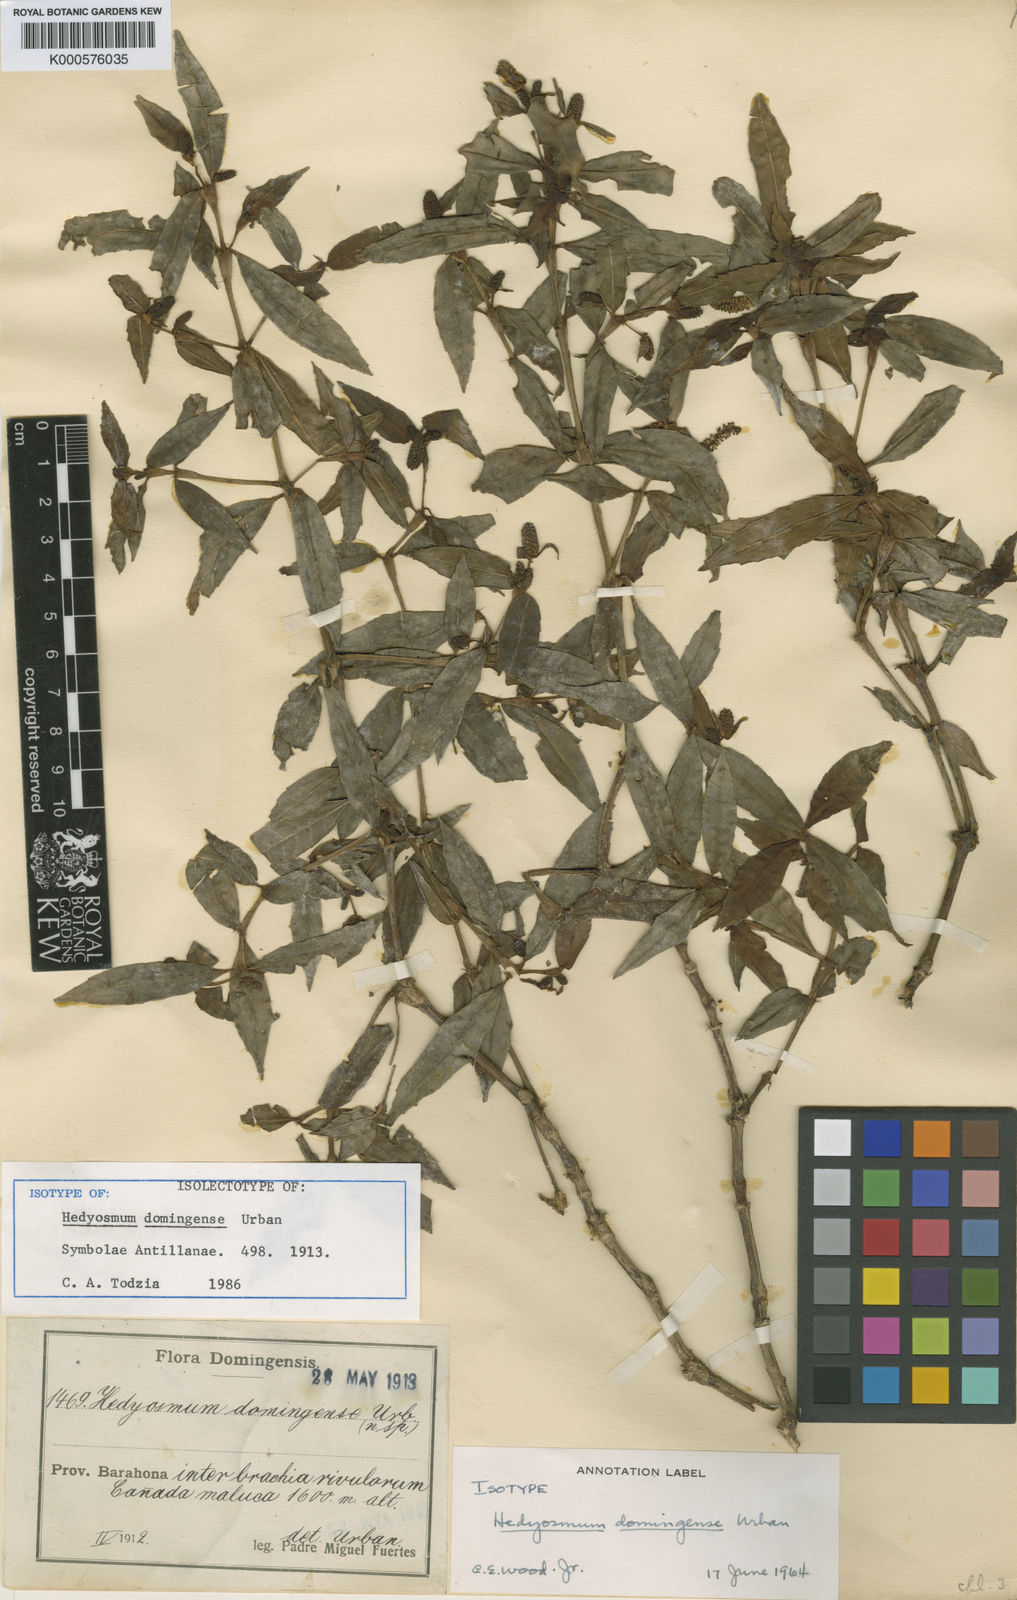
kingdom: Plantae
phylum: Tracheophyta
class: Magnoliopsida
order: Chloranthales
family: Chloranthaceae
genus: Hedyosmum
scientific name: Hedyosmum domingense
